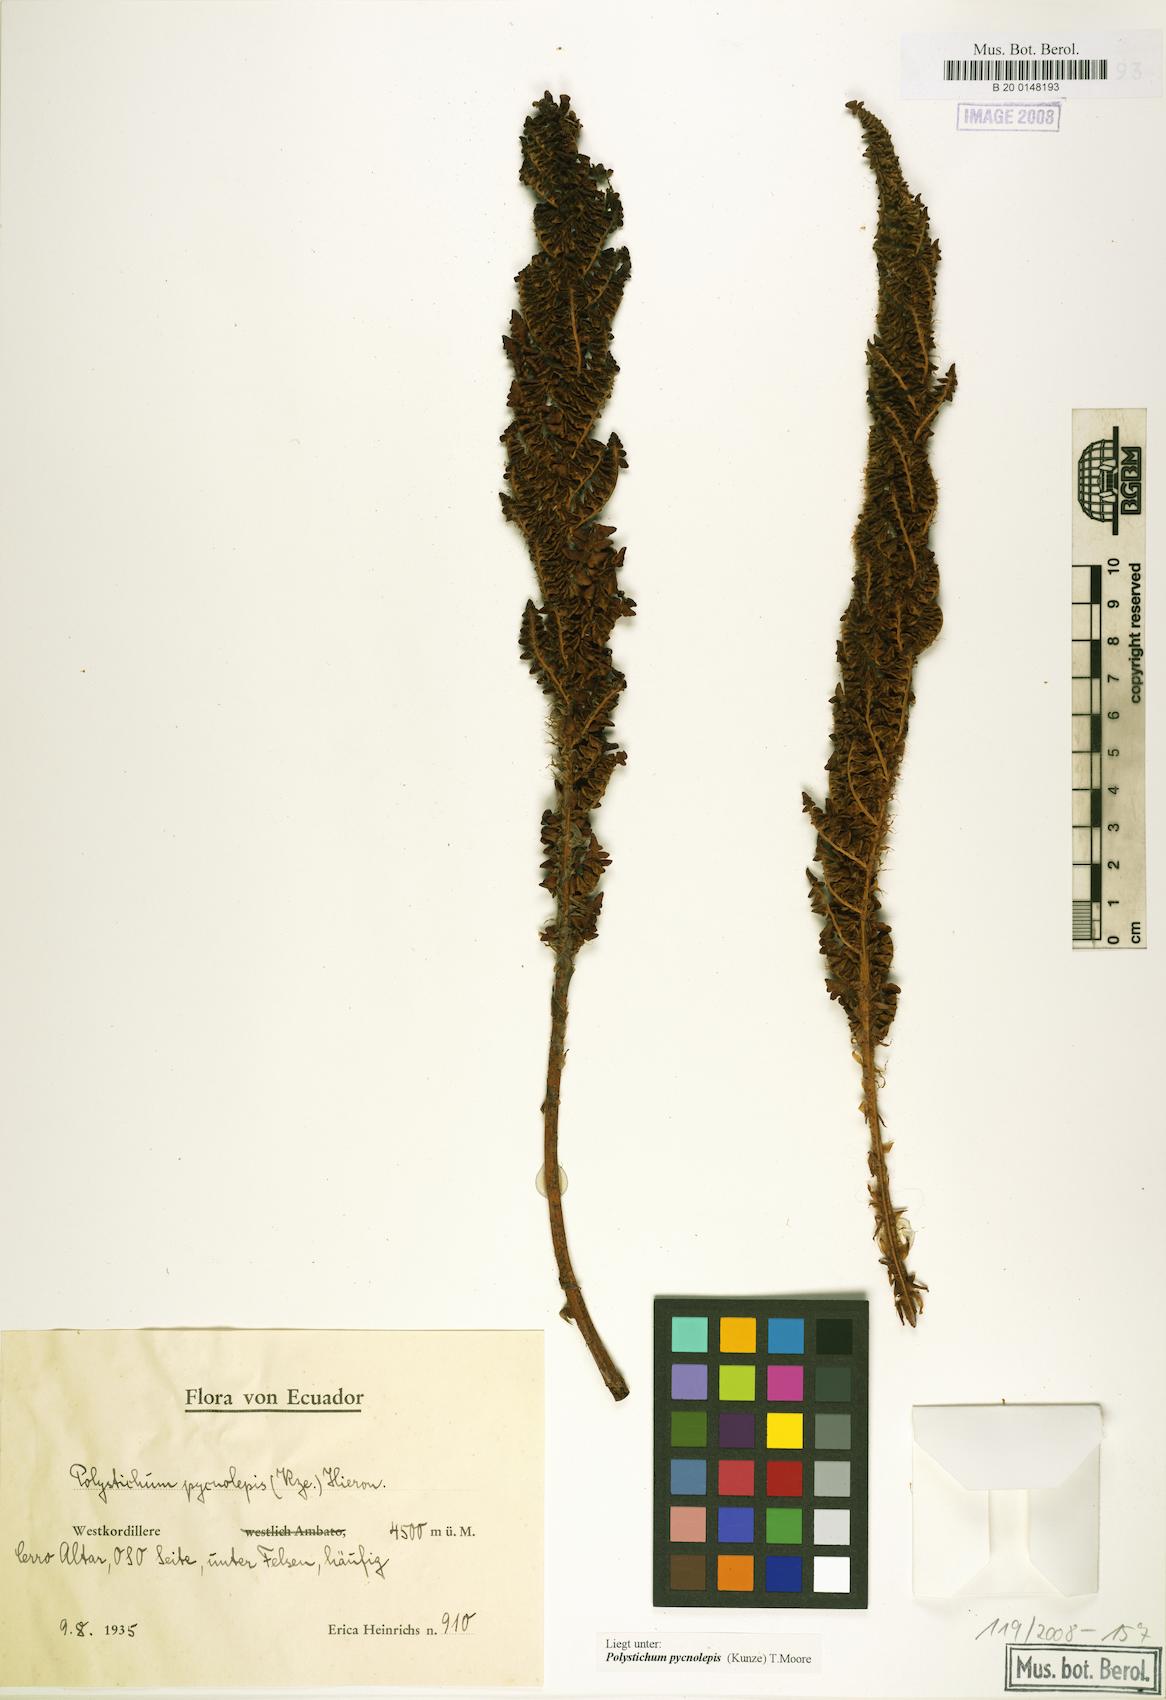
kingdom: Plantae
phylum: Tracheophyta
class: Polypodiopsida
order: Polypodiales
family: Dryopteridaceae
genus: Polystichum
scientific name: Polystichum pycnolepis
